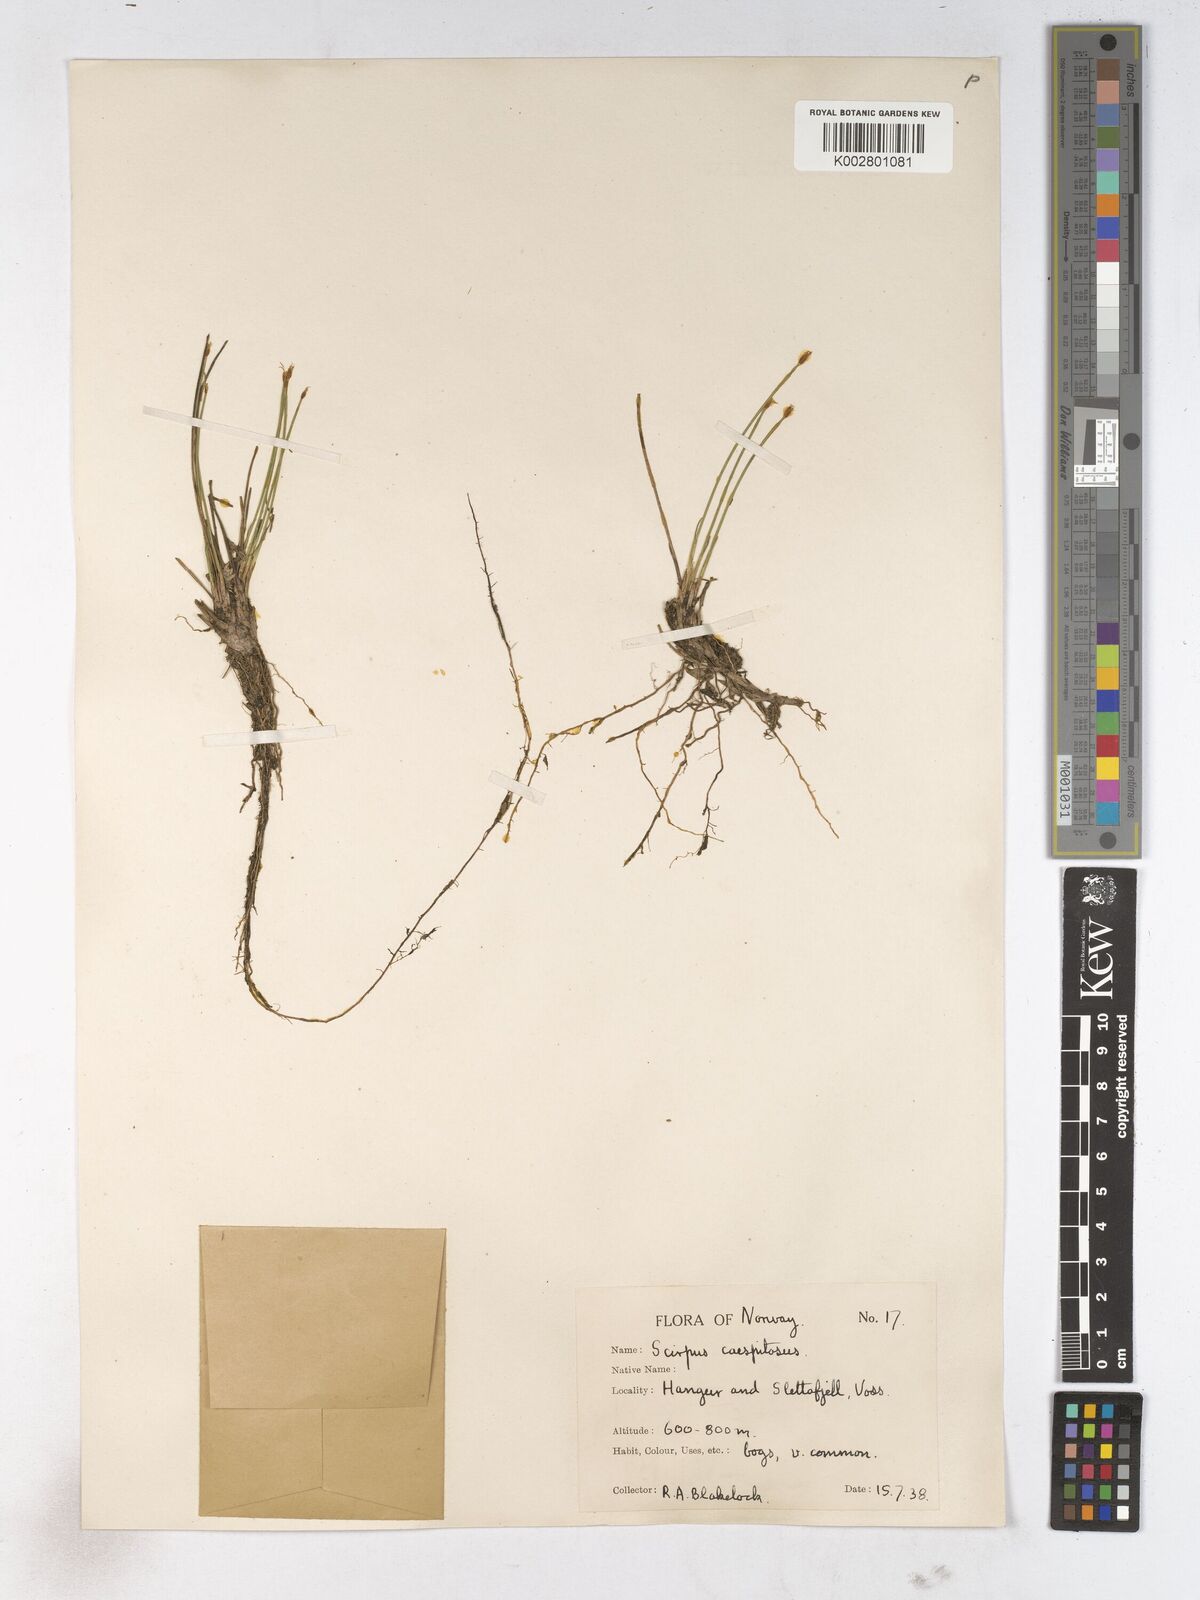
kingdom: Plantae
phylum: Tracheophyta
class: Liliopsida
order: Poales
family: Cyperaceae
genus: Trichophorum
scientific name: Trichophorum cespitosum
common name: Cespitose bulrush
